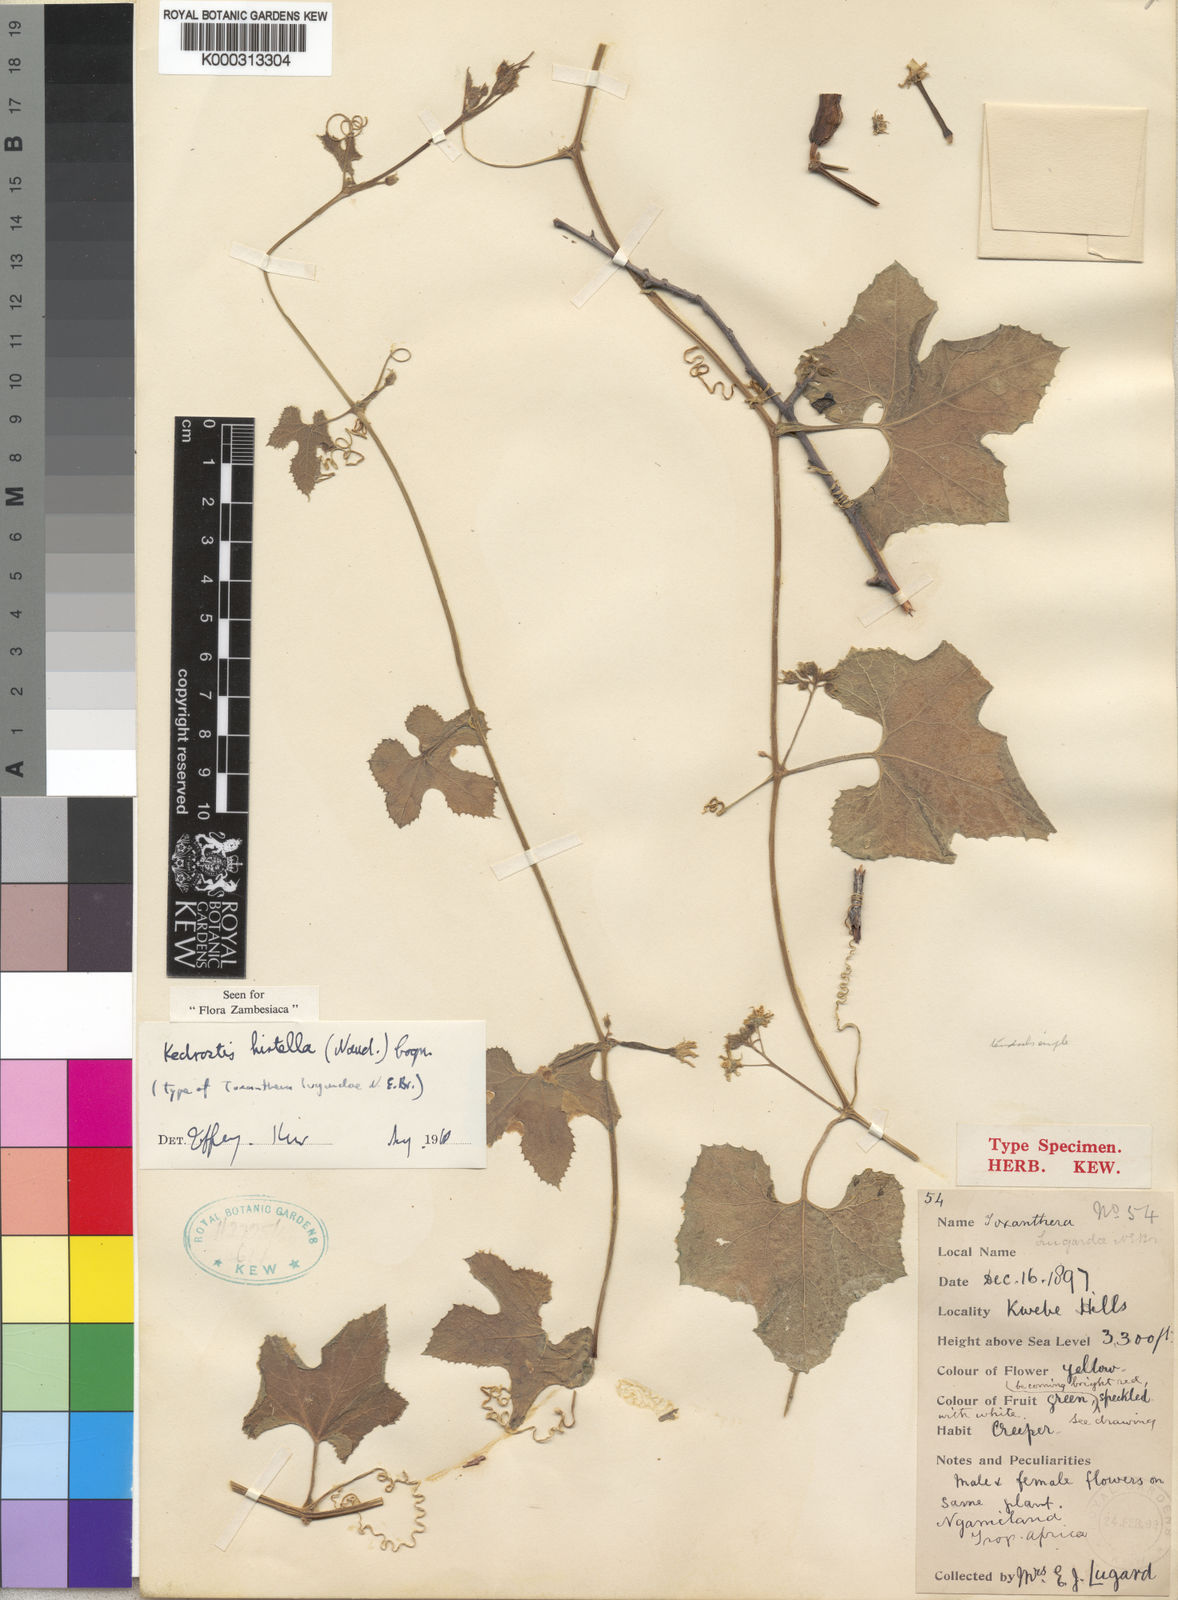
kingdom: Plantae
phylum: Tracheophyta
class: Magnoliopsida
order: Cucurbitales
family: Cucurbitaceae
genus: Kedrostis
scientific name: Kedrostis leloja
